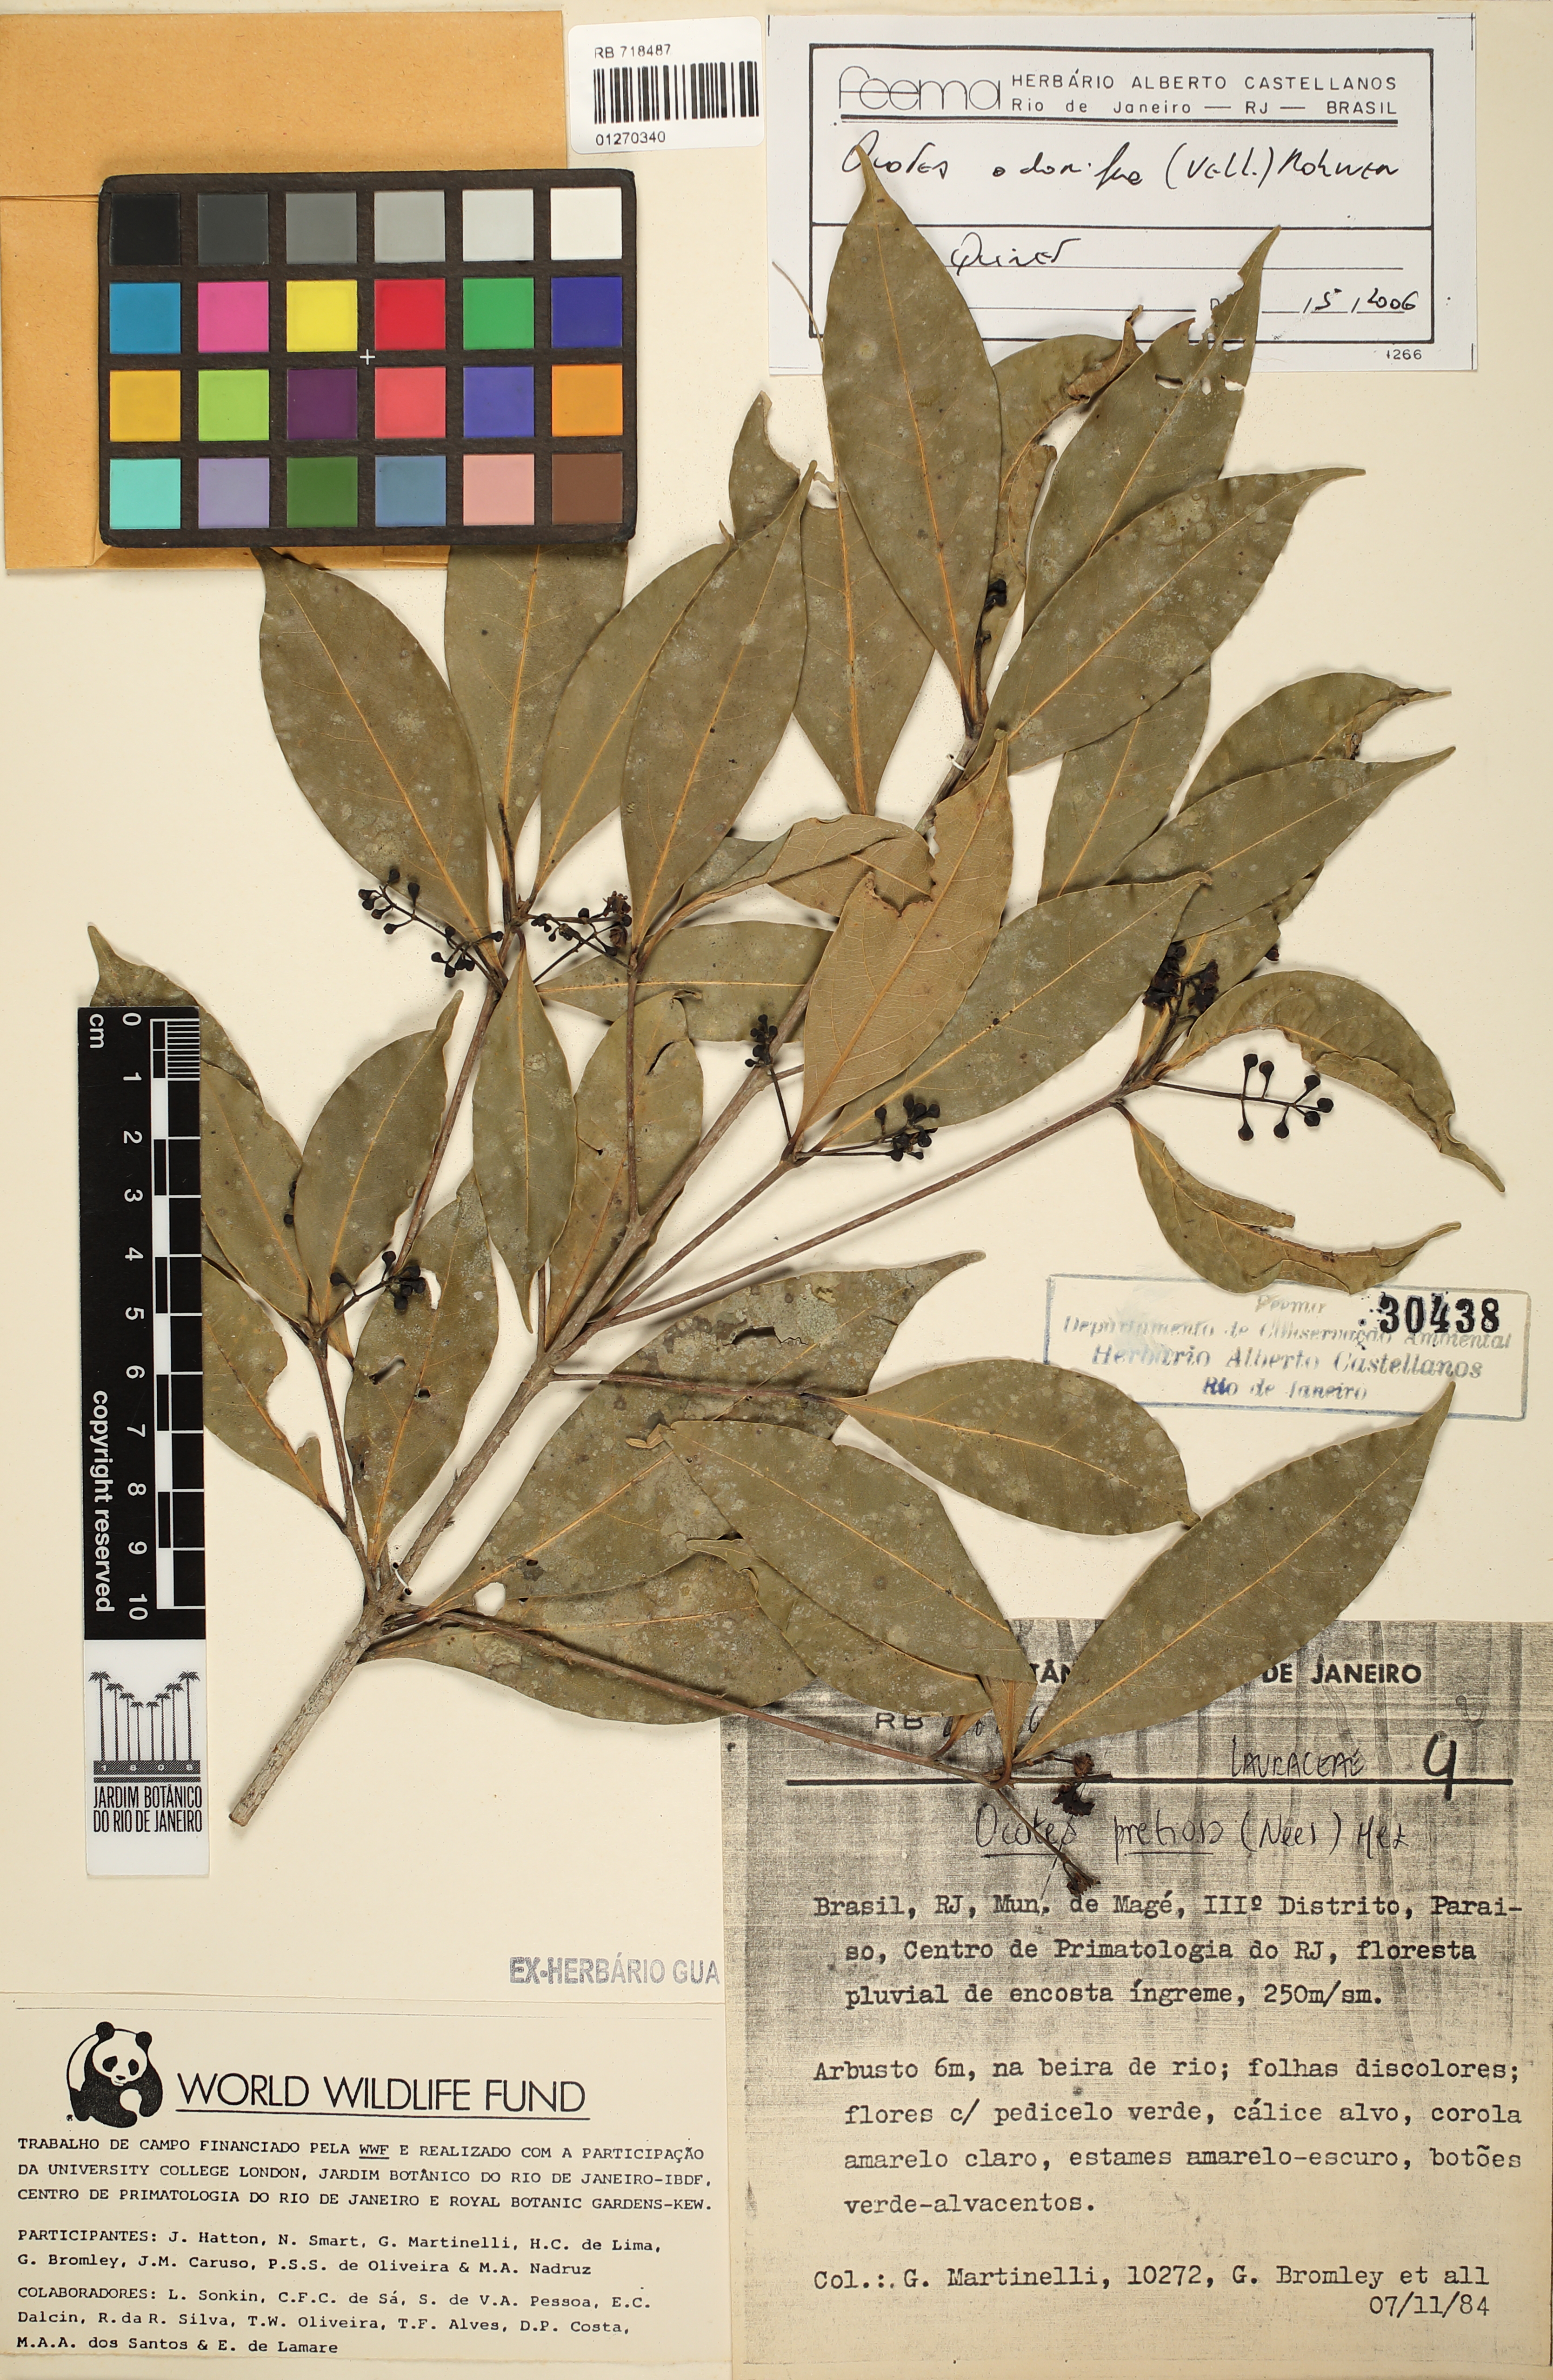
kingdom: Plantae
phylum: Tracheophyta
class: Magnoliopsida
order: Laurales
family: Lauraceae
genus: Mespilodaphne
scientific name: Mespilodaphne quixos
